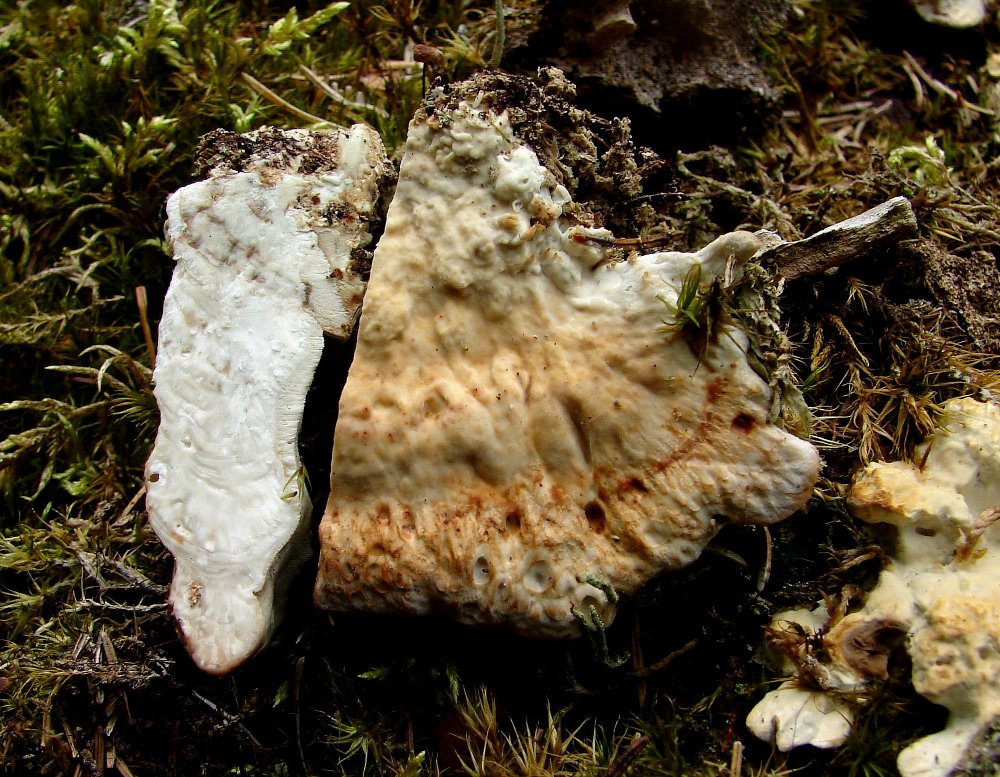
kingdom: Fungi
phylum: Basidiomycota
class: Agaricomycetes
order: Polyporales
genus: Calcipostia
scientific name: Calcipostia guttulata
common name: dråbe-kødporesvamp
